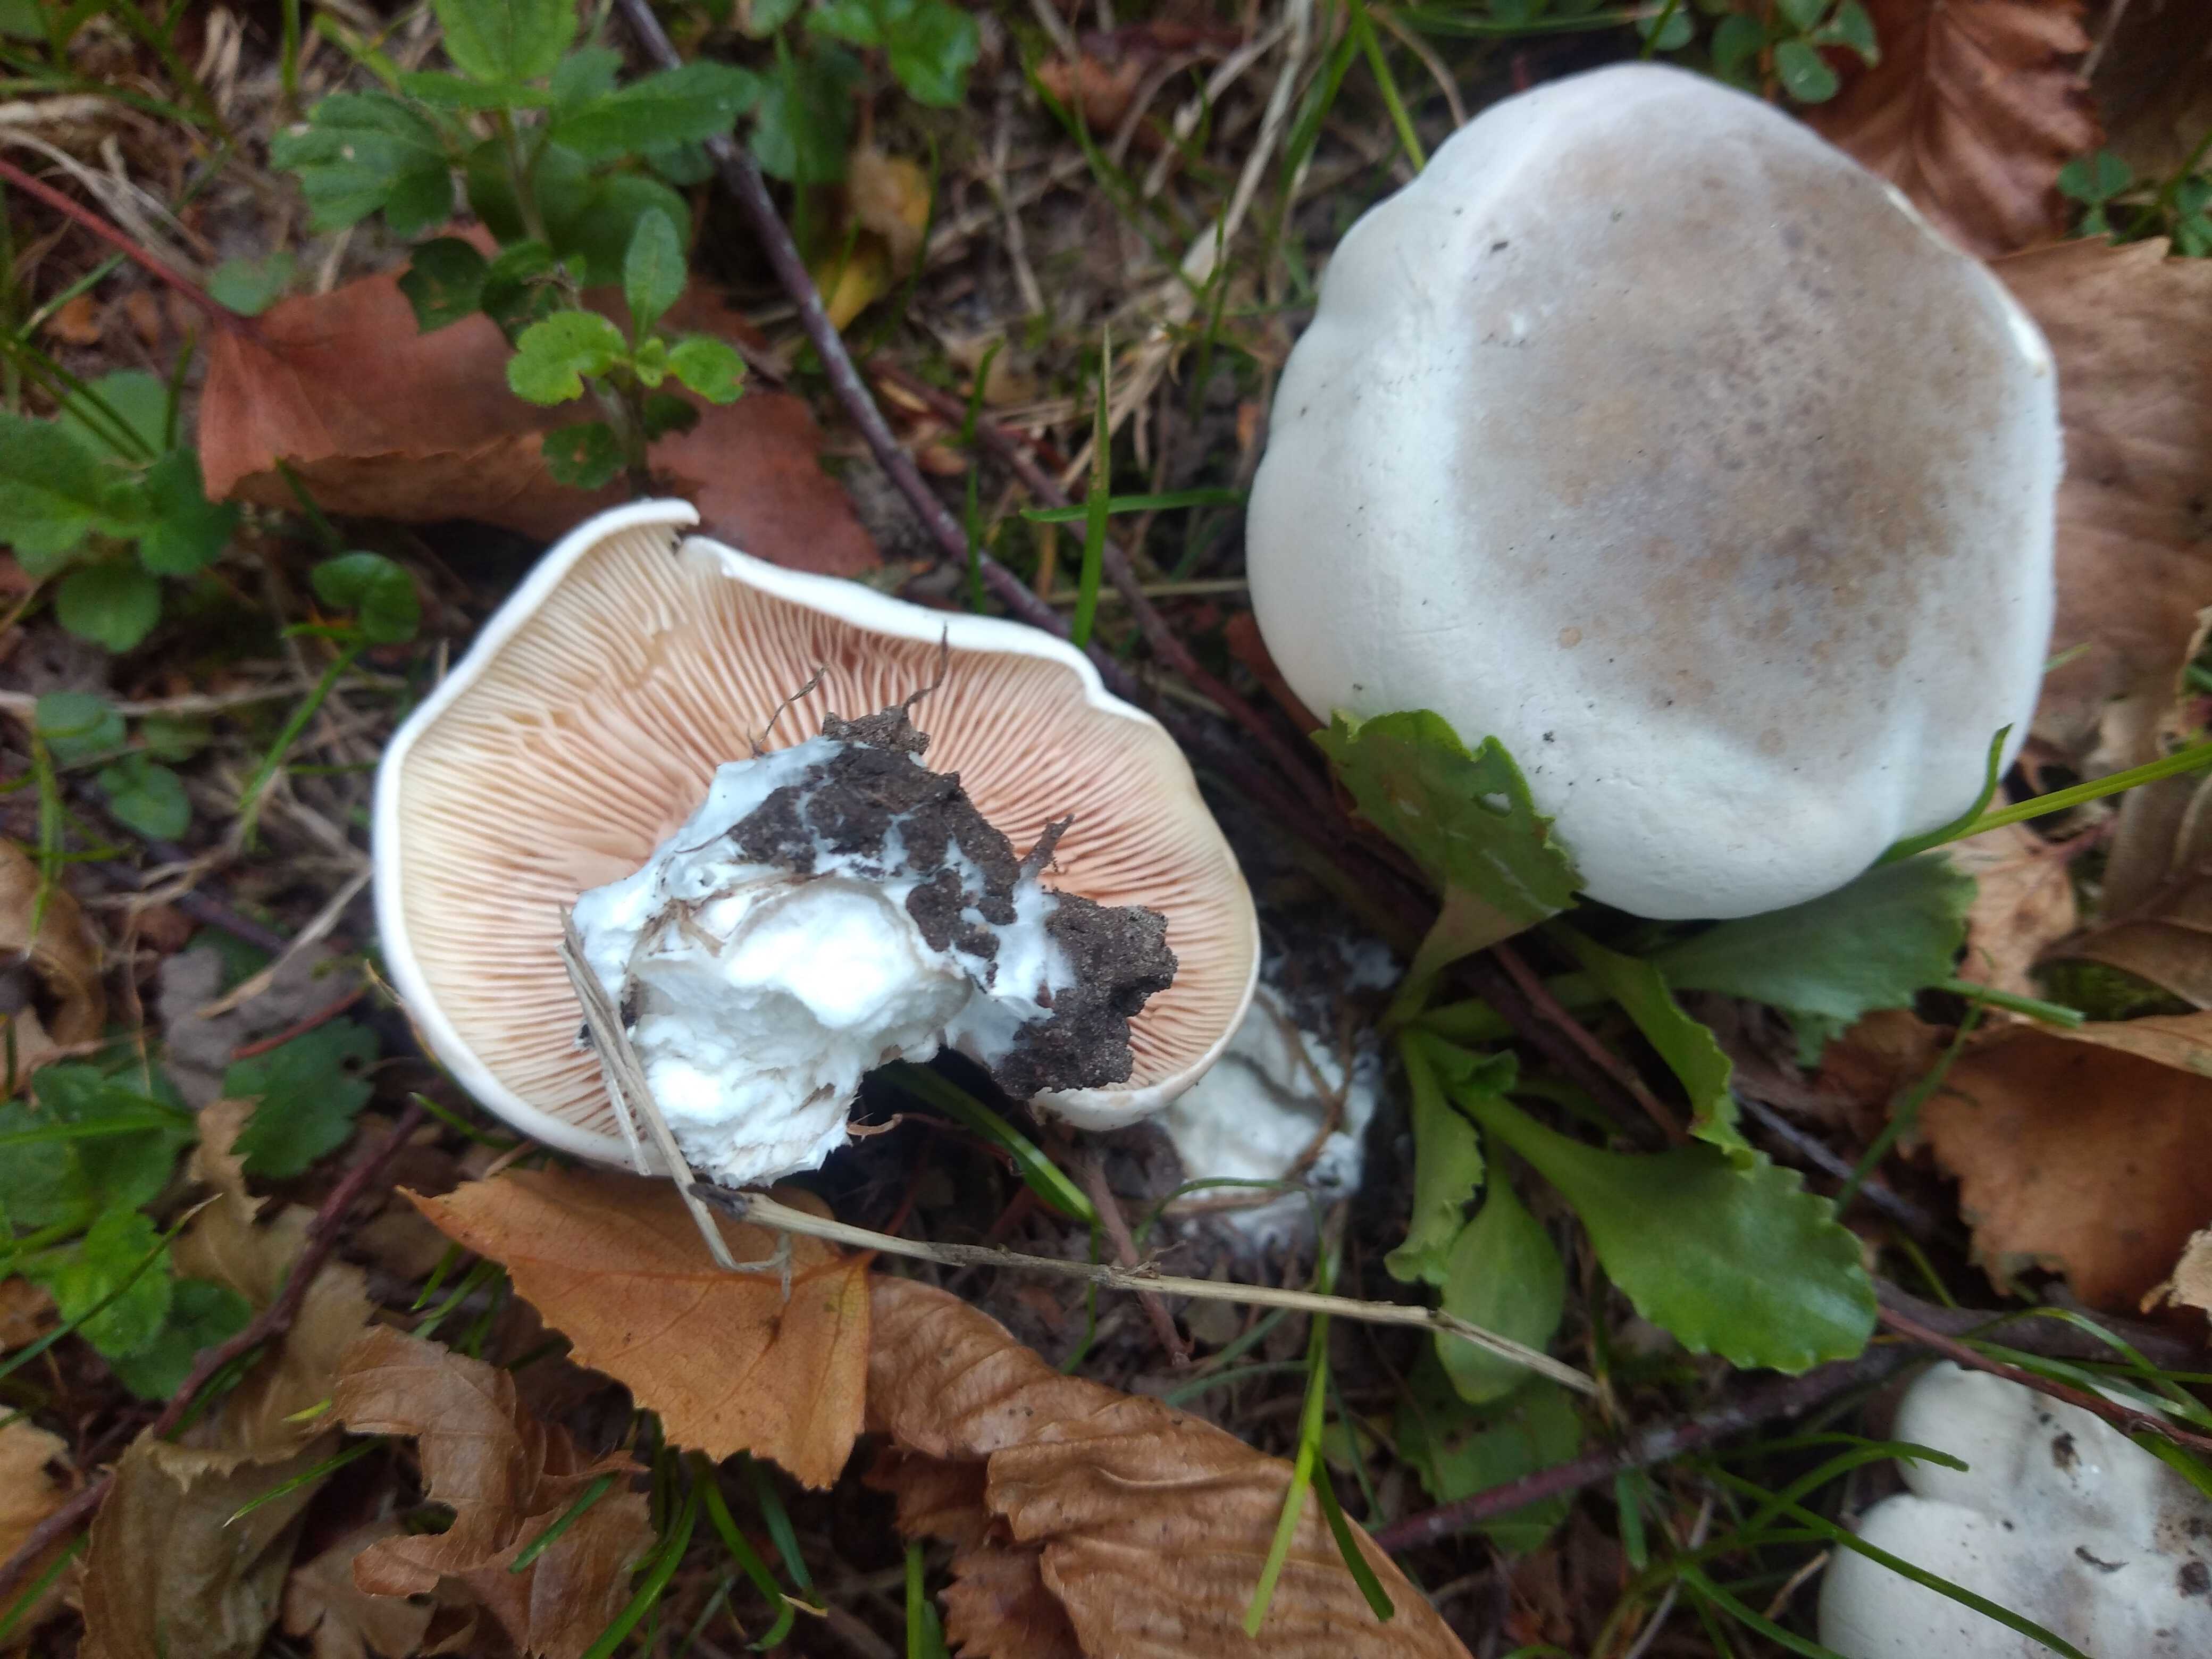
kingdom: Fungi
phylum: Basidiomycota
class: Agaricomycetes
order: Agaricales
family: Entolomataceae
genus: Clitopilus
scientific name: Clitopilus prunulus
